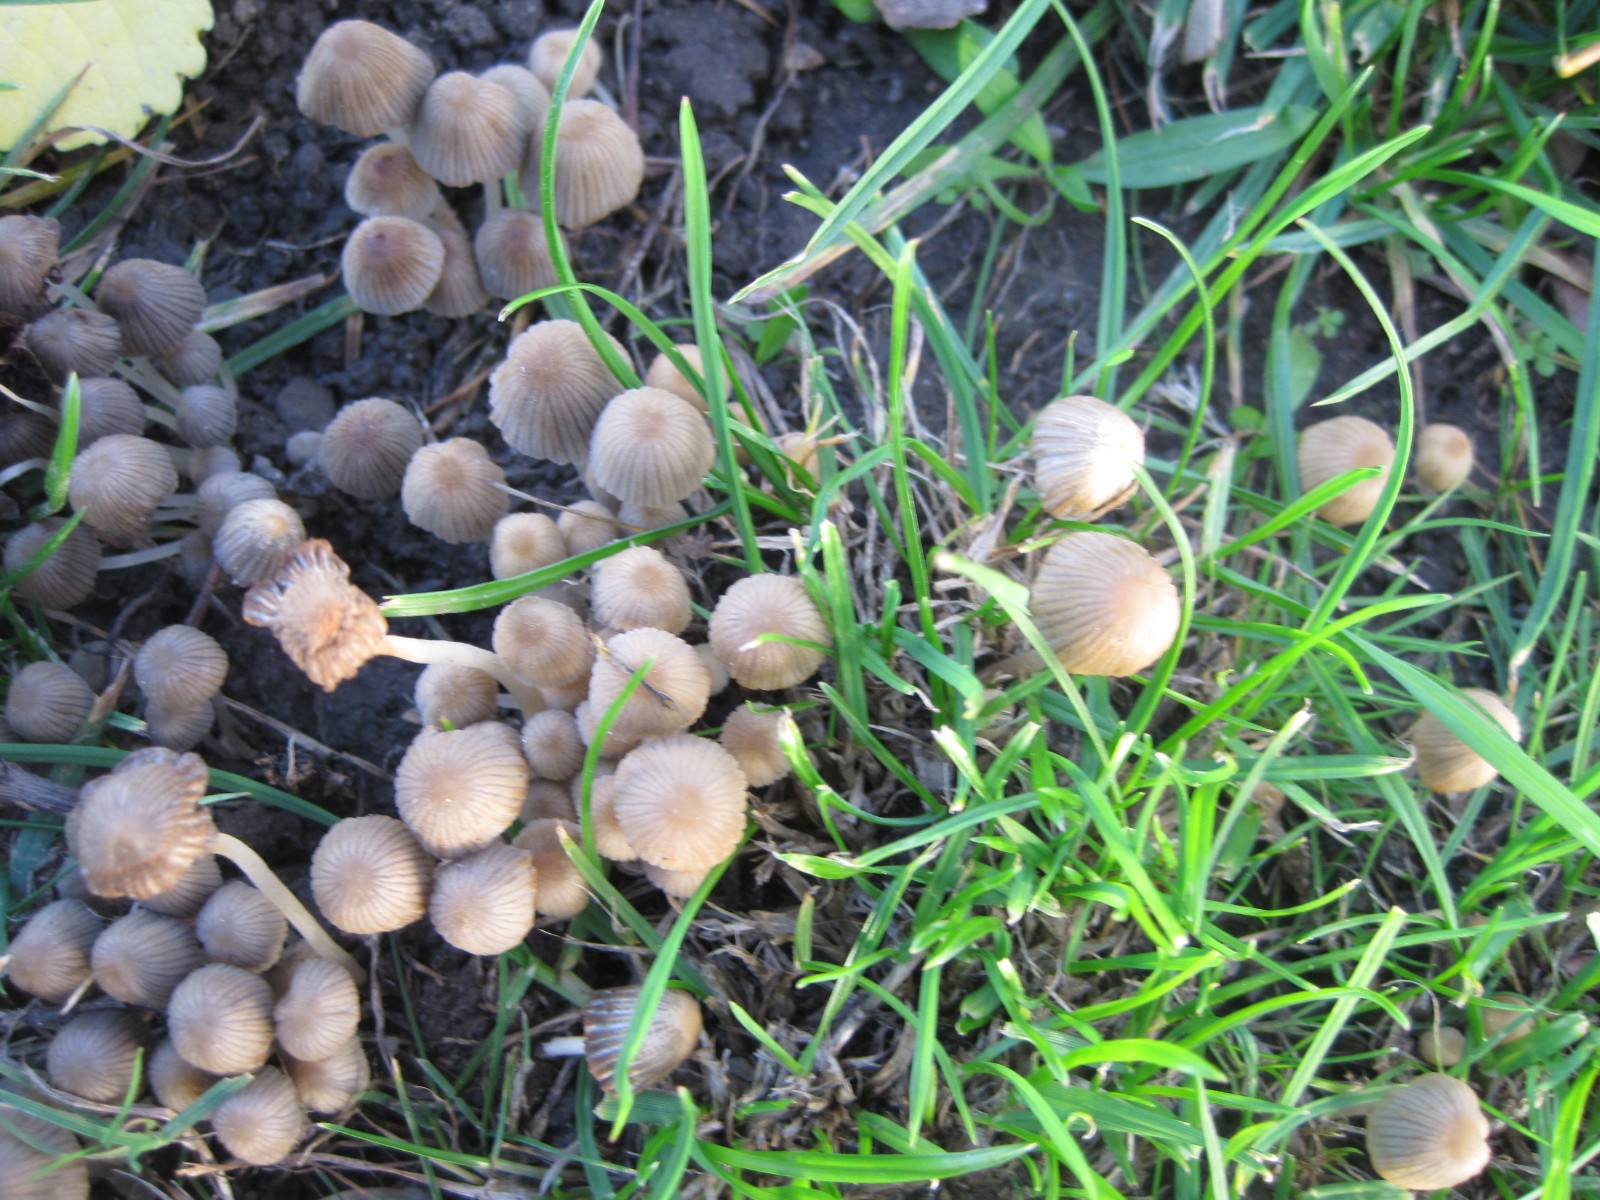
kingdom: Fungi
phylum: Basidiomycota
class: Agaricomycetes
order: Agaricales
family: Psathyrellaceae
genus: Coprinellus
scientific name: Coprinellus disseminatus
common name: bredsået blækhat
